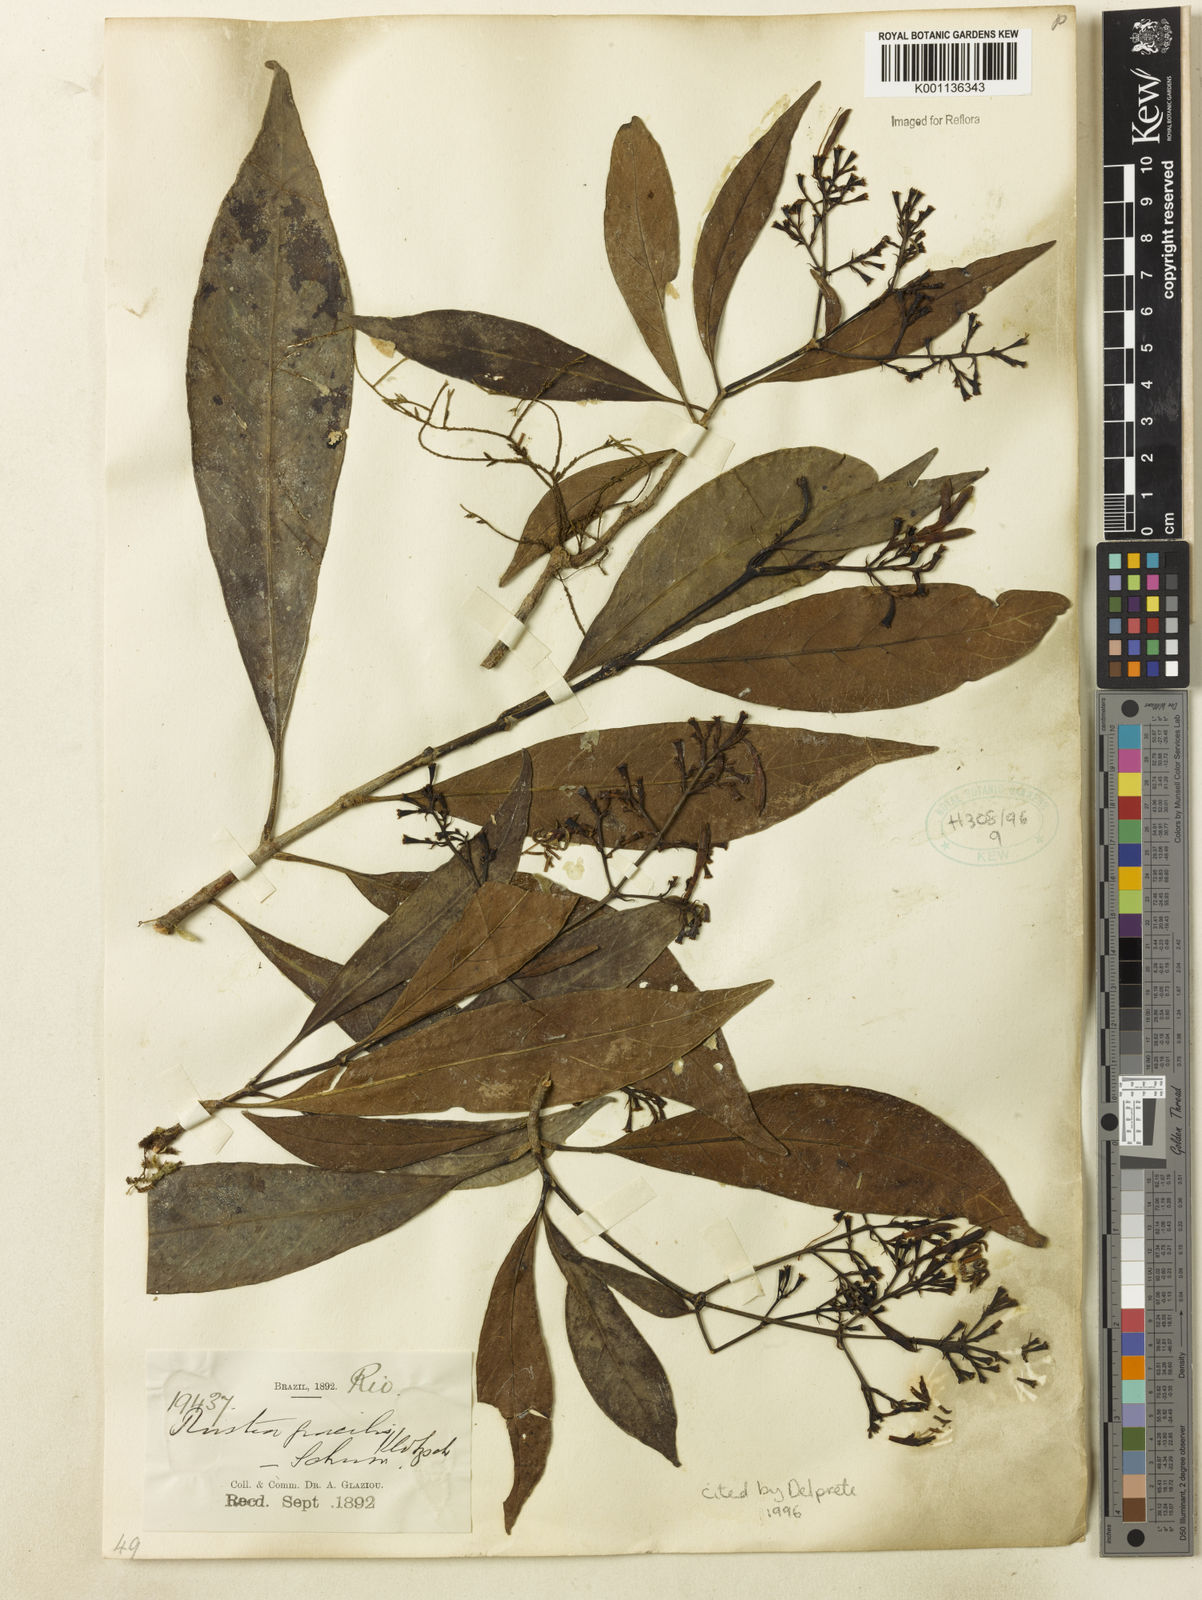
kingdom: Plantae
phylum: Tracheophyta
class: Magnoliopsida
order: Gentianales
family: Rubiaceae
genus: Rustia
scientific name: Rustia gracilis
